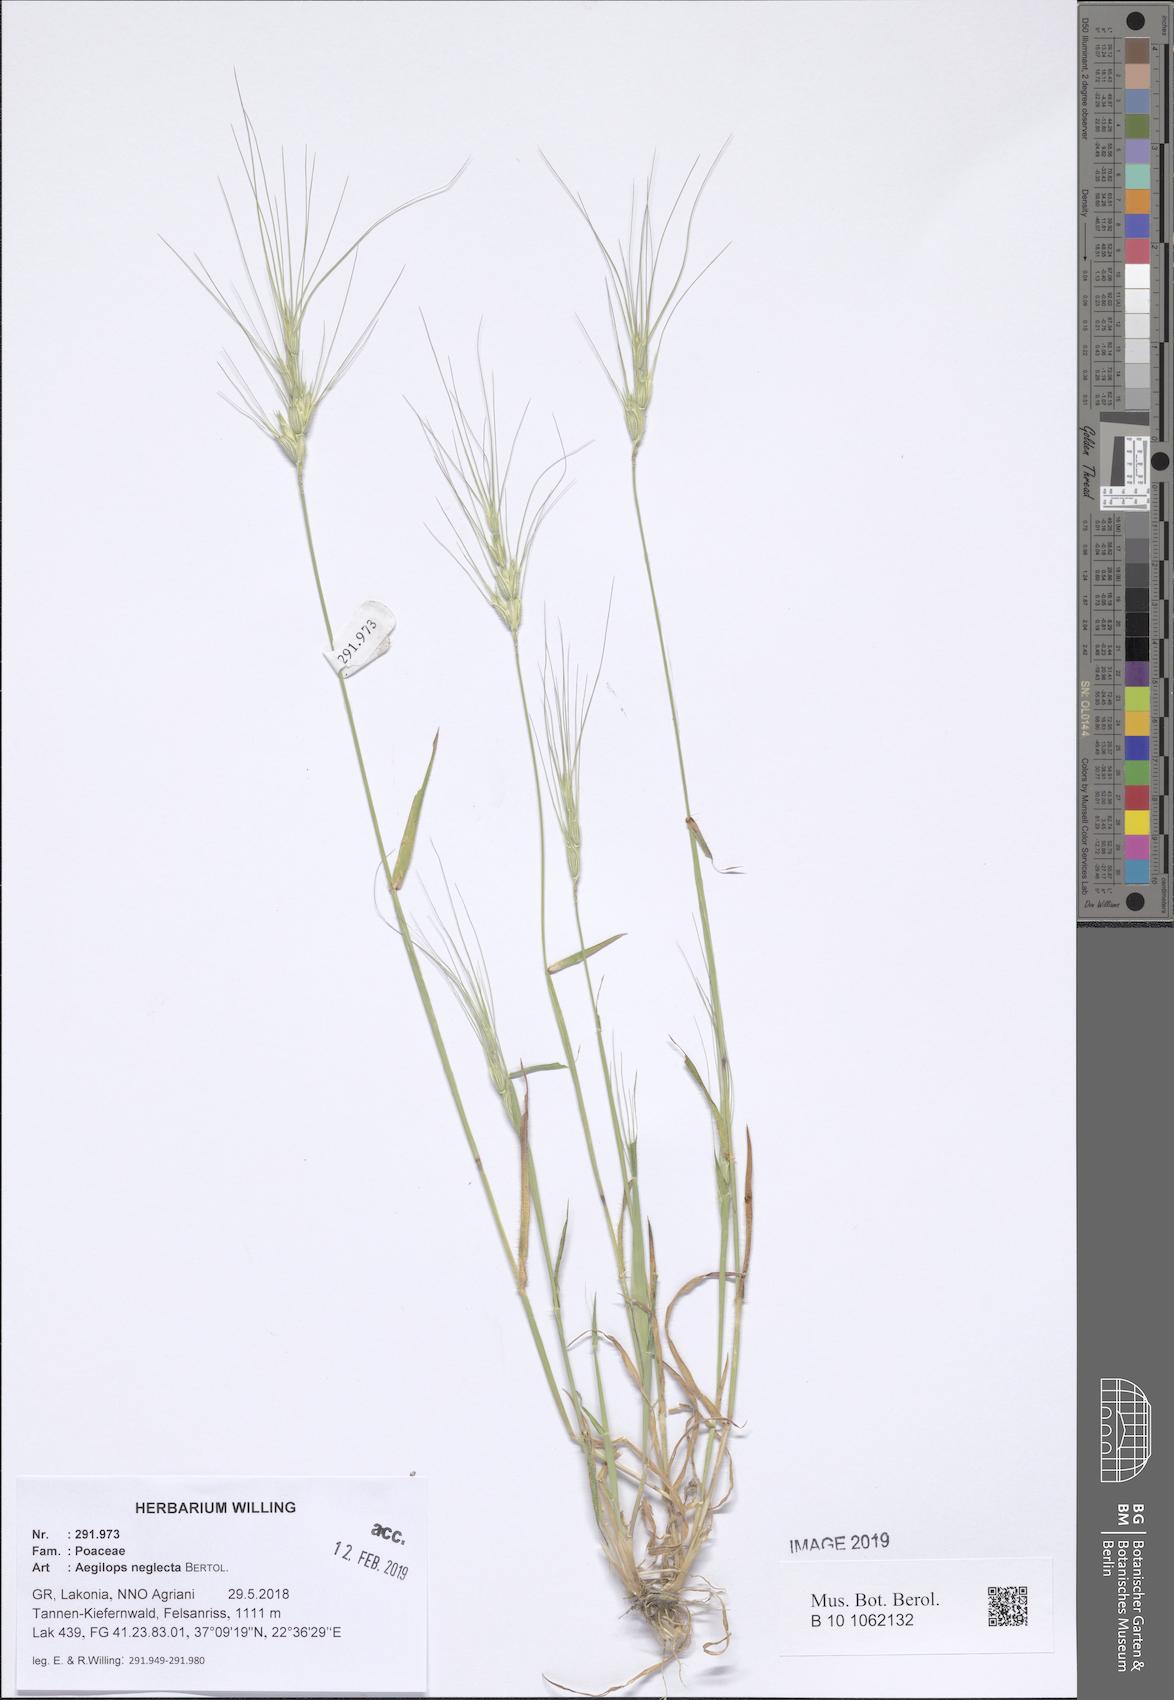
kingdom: Plantae
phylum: Tracheophyta
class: Liliopsida
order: Poales
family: Poaceae
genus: Aegilops
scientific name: Aegilops neglecta
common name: Three-awn goat grass
